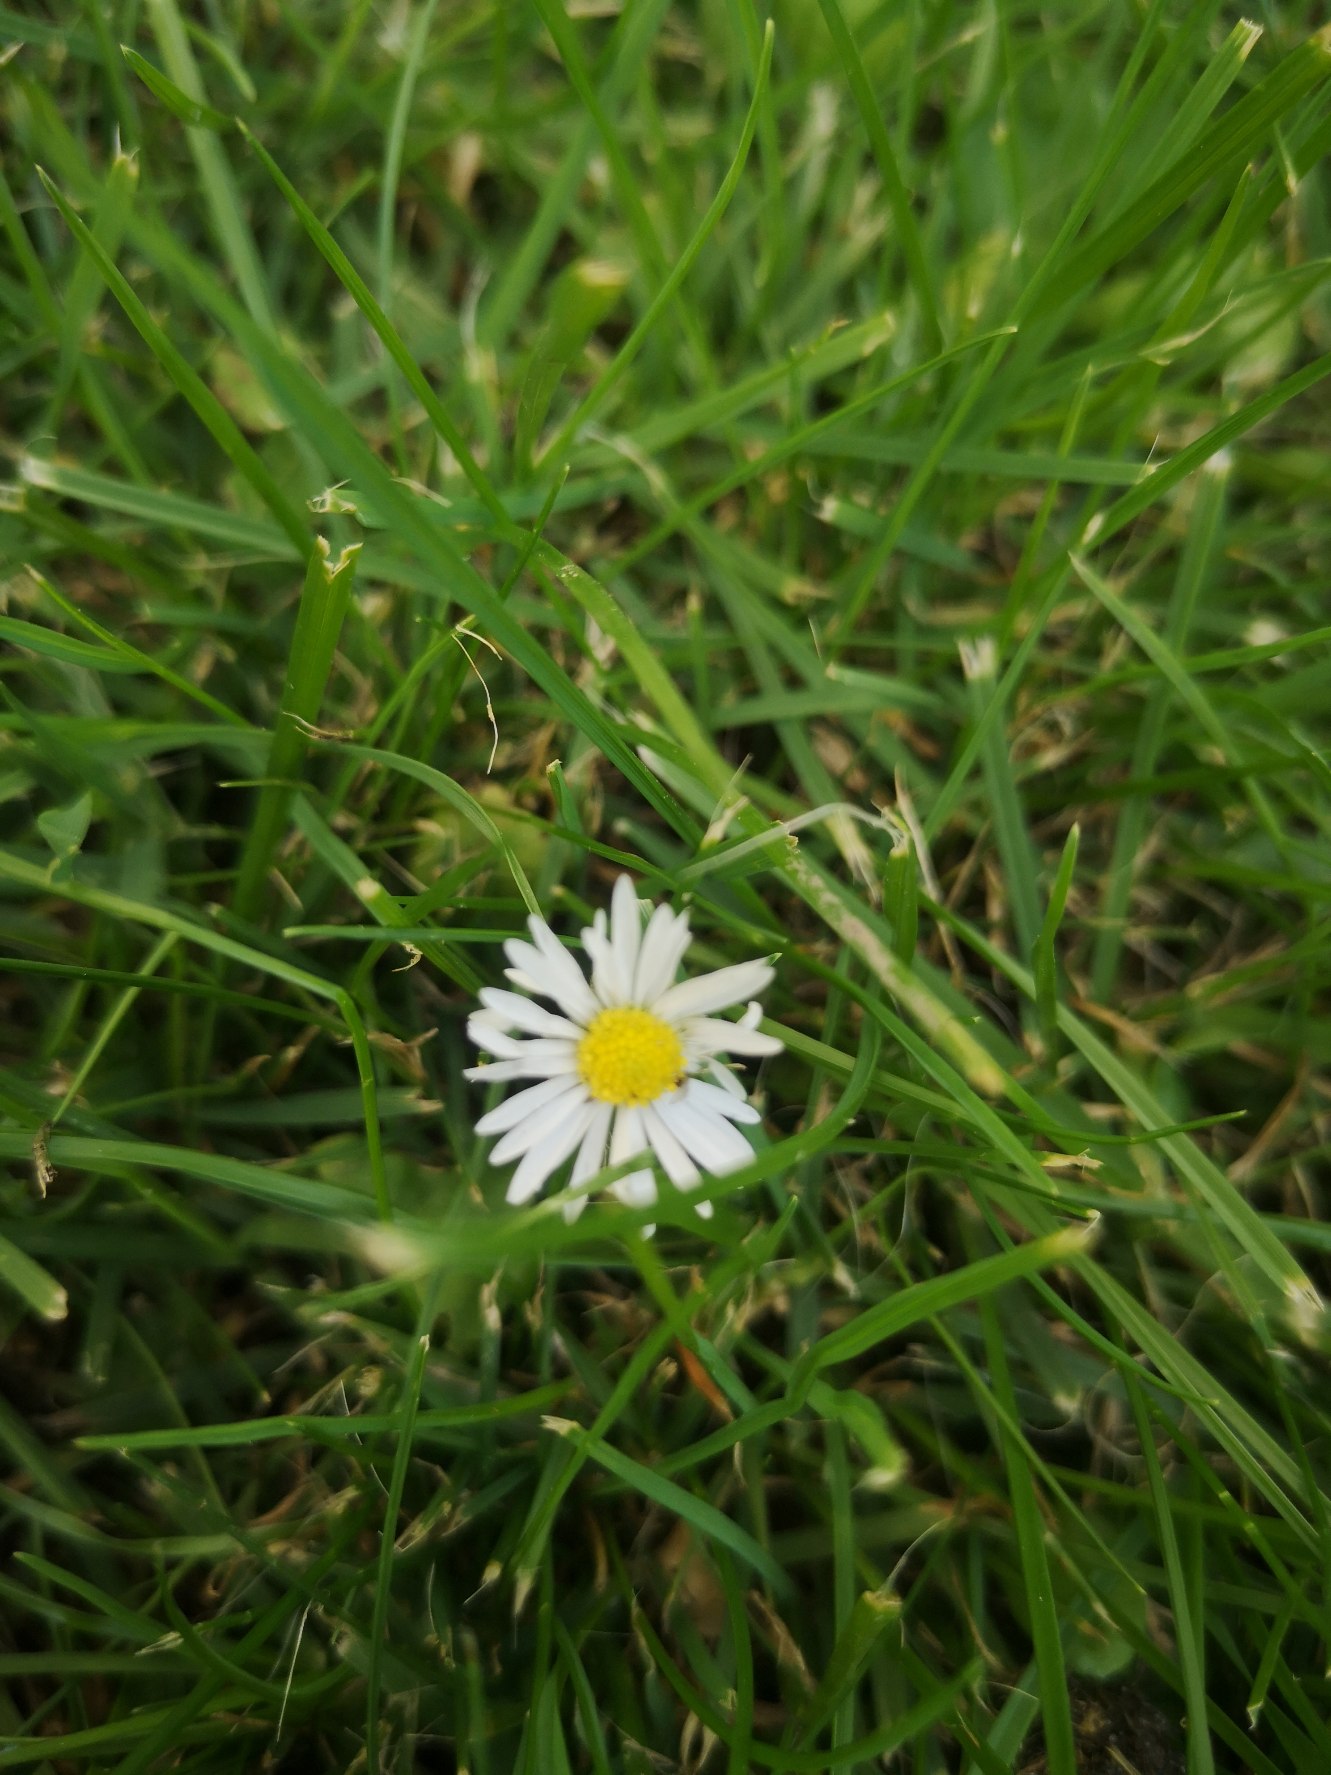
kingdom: Plantae
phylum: Tracheophyta
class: Magnoliopsida
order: Asterales
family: Asteraceae
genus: Bellis
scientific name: Bellis perennis
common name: Tusindfryd
